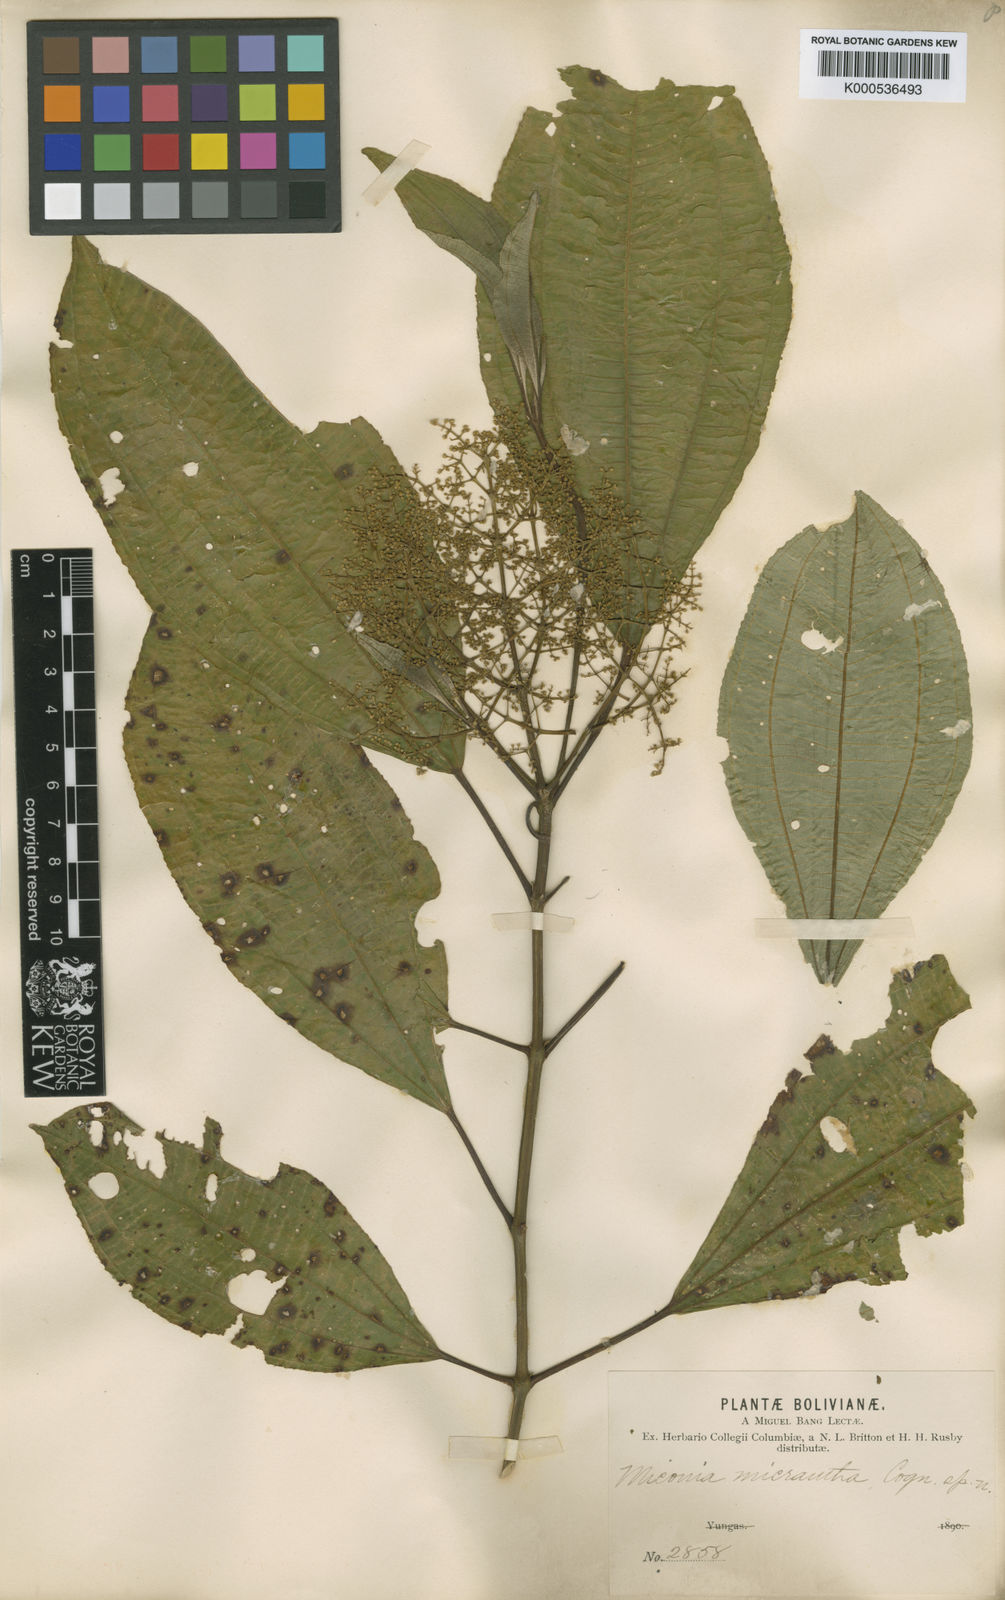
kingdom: Plantae
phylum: Tracheophyta
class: Magnoliopsida
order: Myrtales
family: Melastomataceae
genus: Miconia
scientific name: Miconia micrantha
